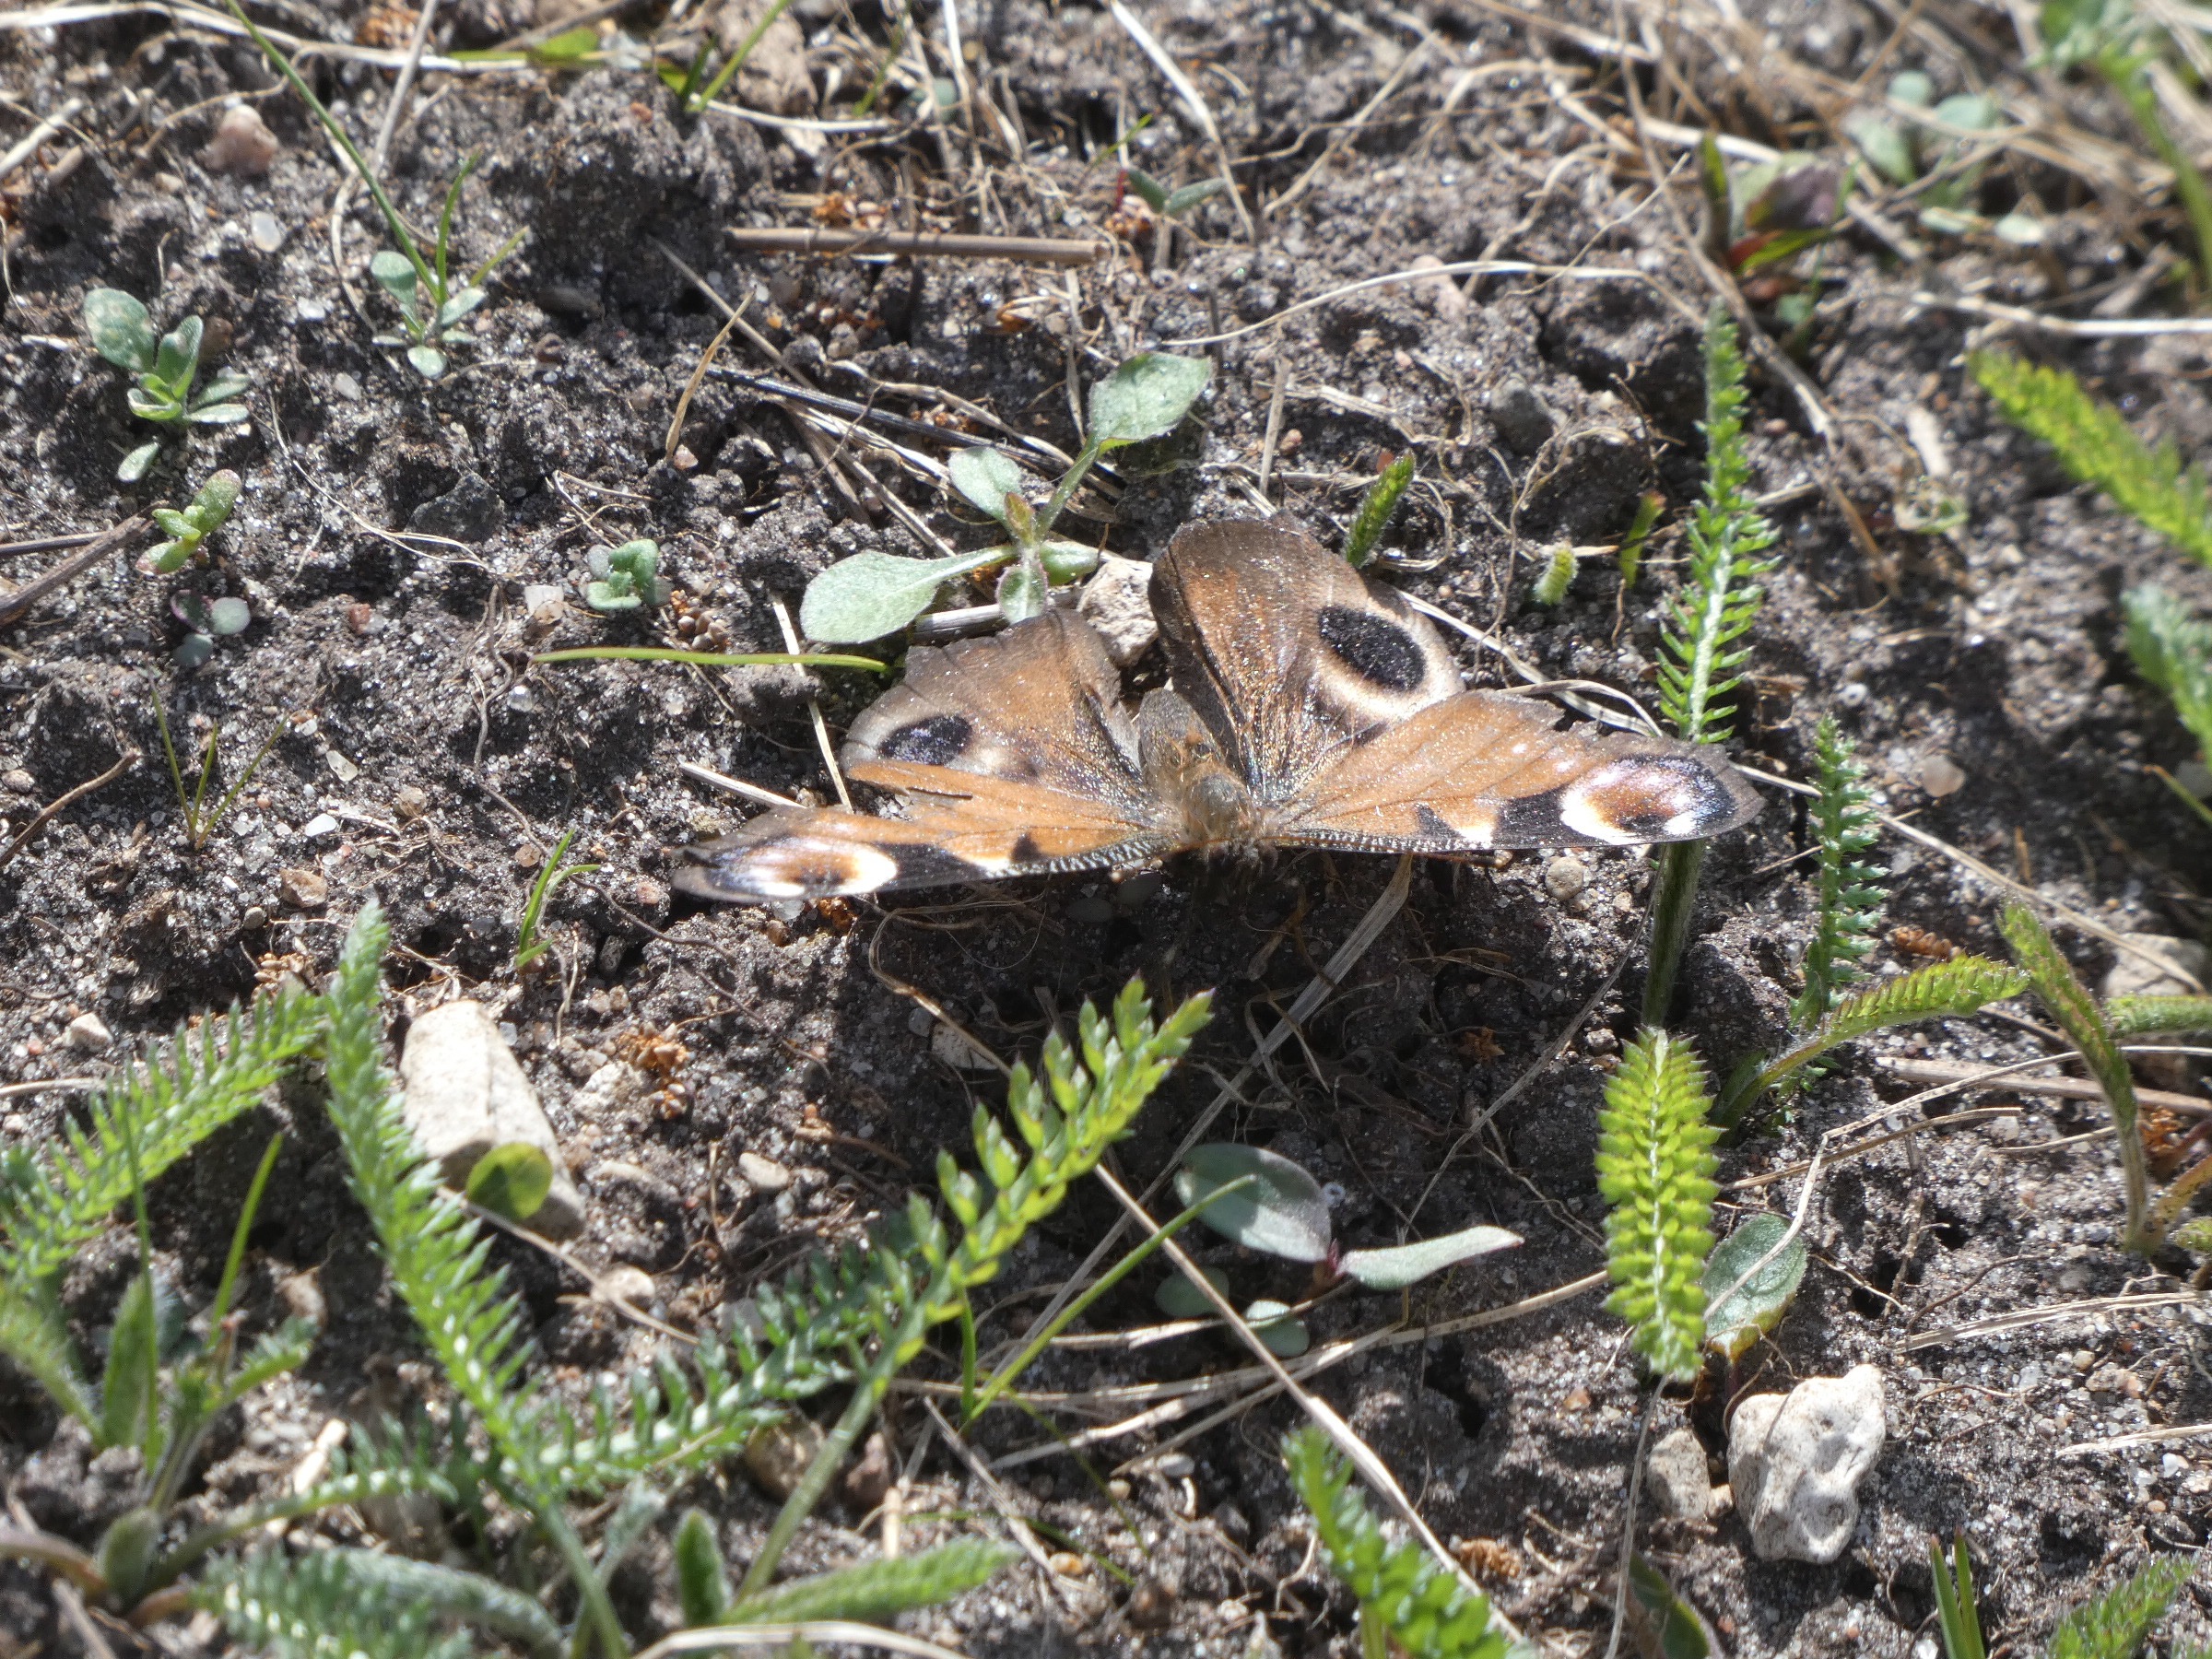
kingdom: Animalia
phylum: Arthropoda
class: Insecta
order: Lepidoptera
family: Nymphalidae
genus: Aglais
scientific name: Aglais io
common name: Dagpåfugleøje
